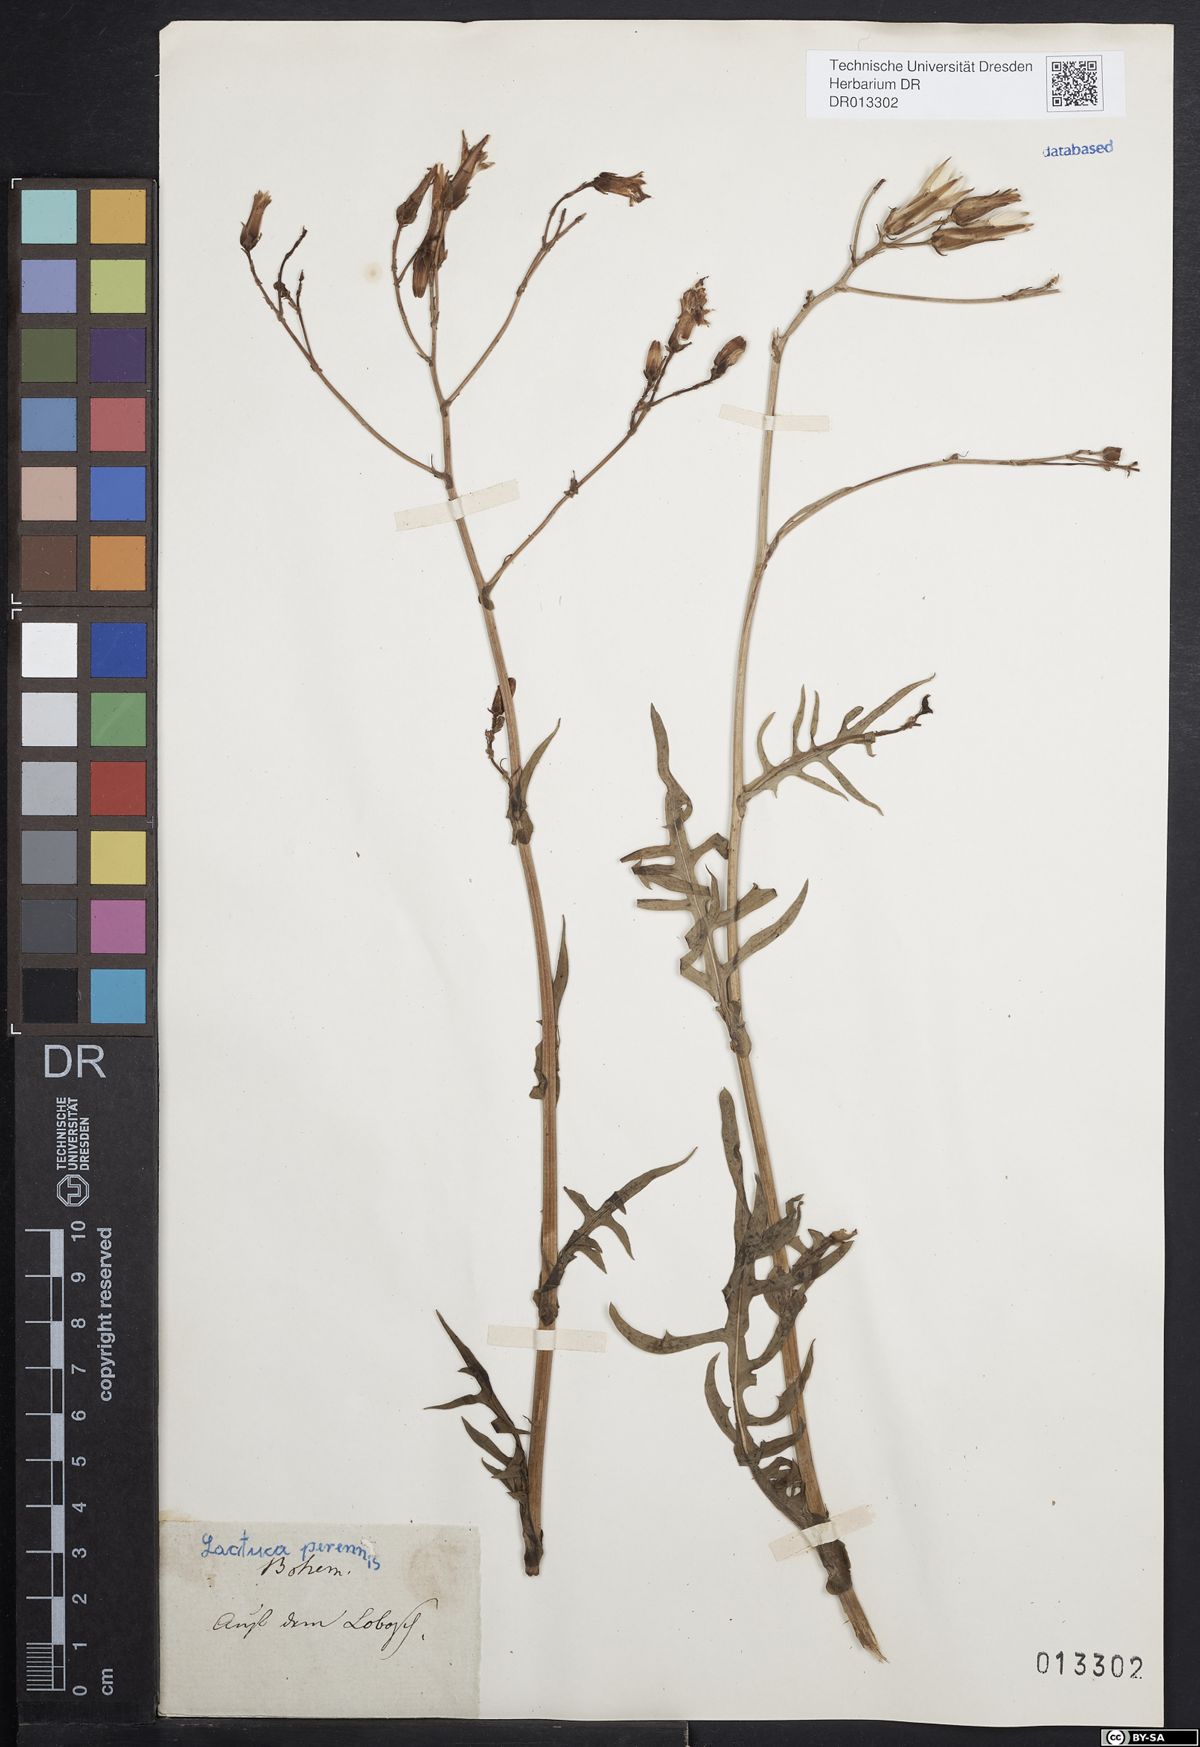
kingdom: Plantae
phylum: Tracheophyta
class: Magnoliopsida
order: Asterales
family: Asteraceae
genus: Lactuca
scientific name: Lactuca perennis
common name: Mountain lettuce
